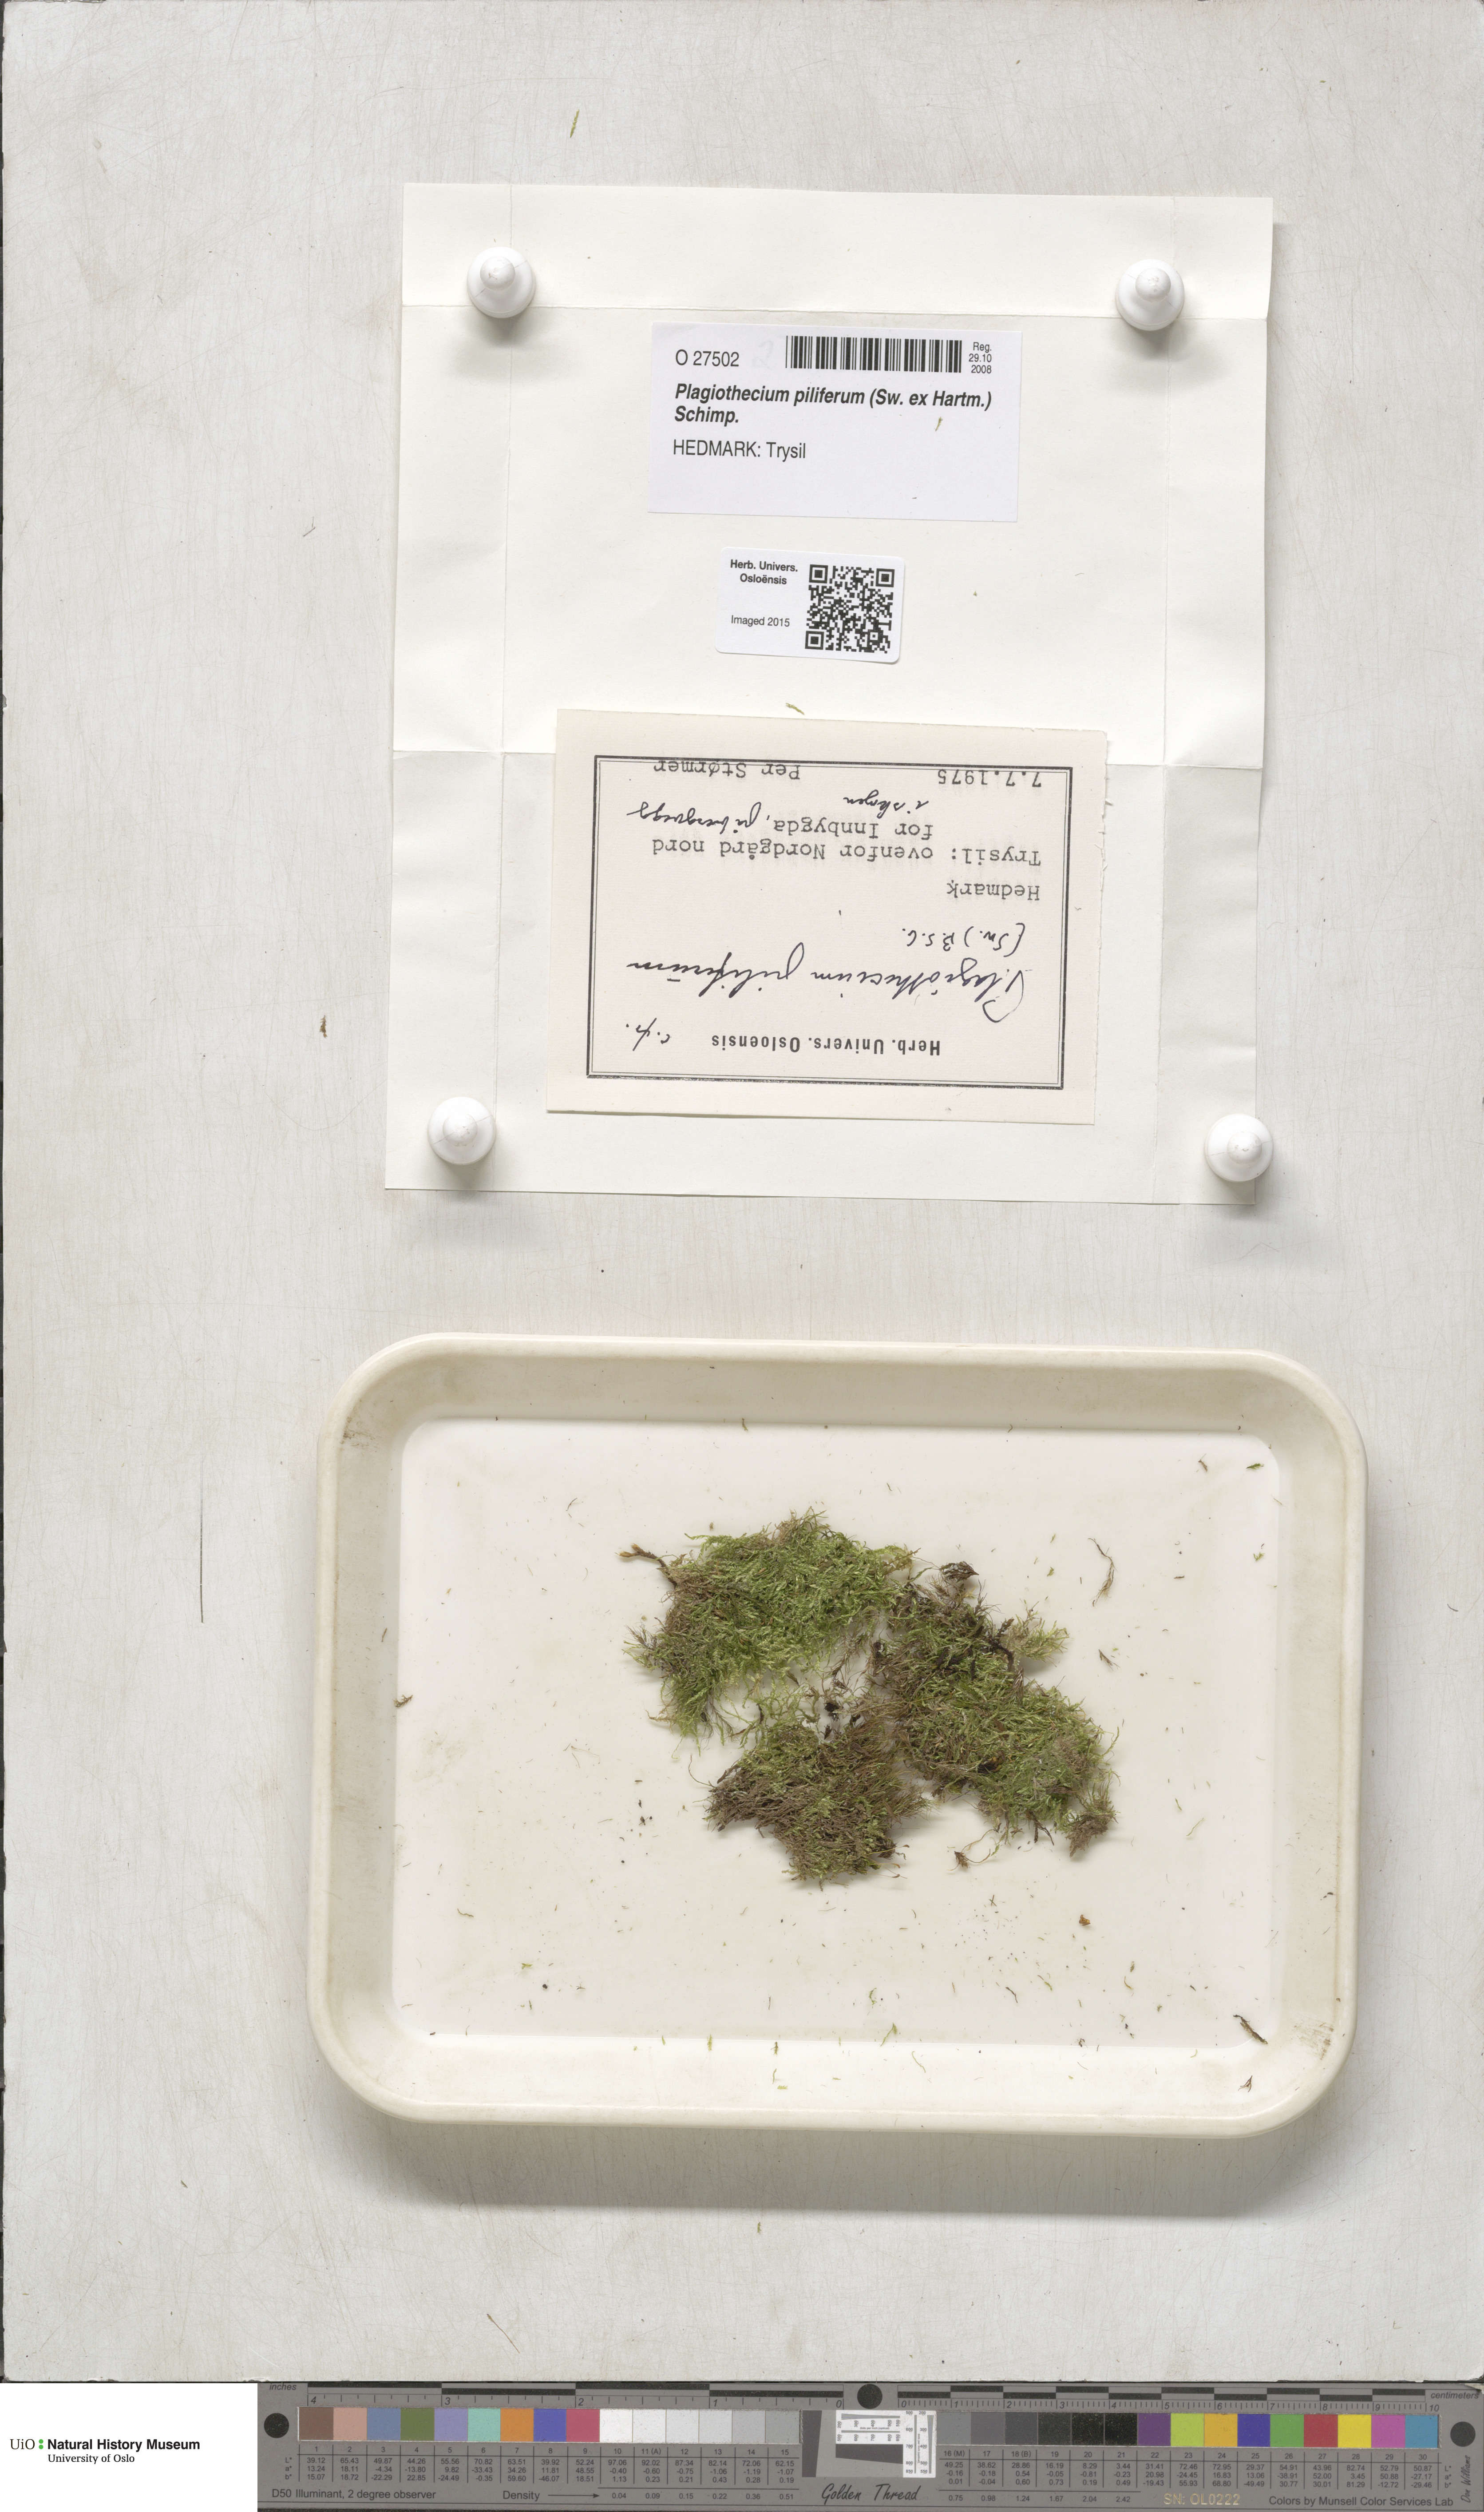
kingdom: Plantae
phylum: Bryophyta
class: Bryopsida
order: Hypnales
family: Plagiotheciaceae
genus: Rectithecium
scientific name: Rectithecium piliferum
